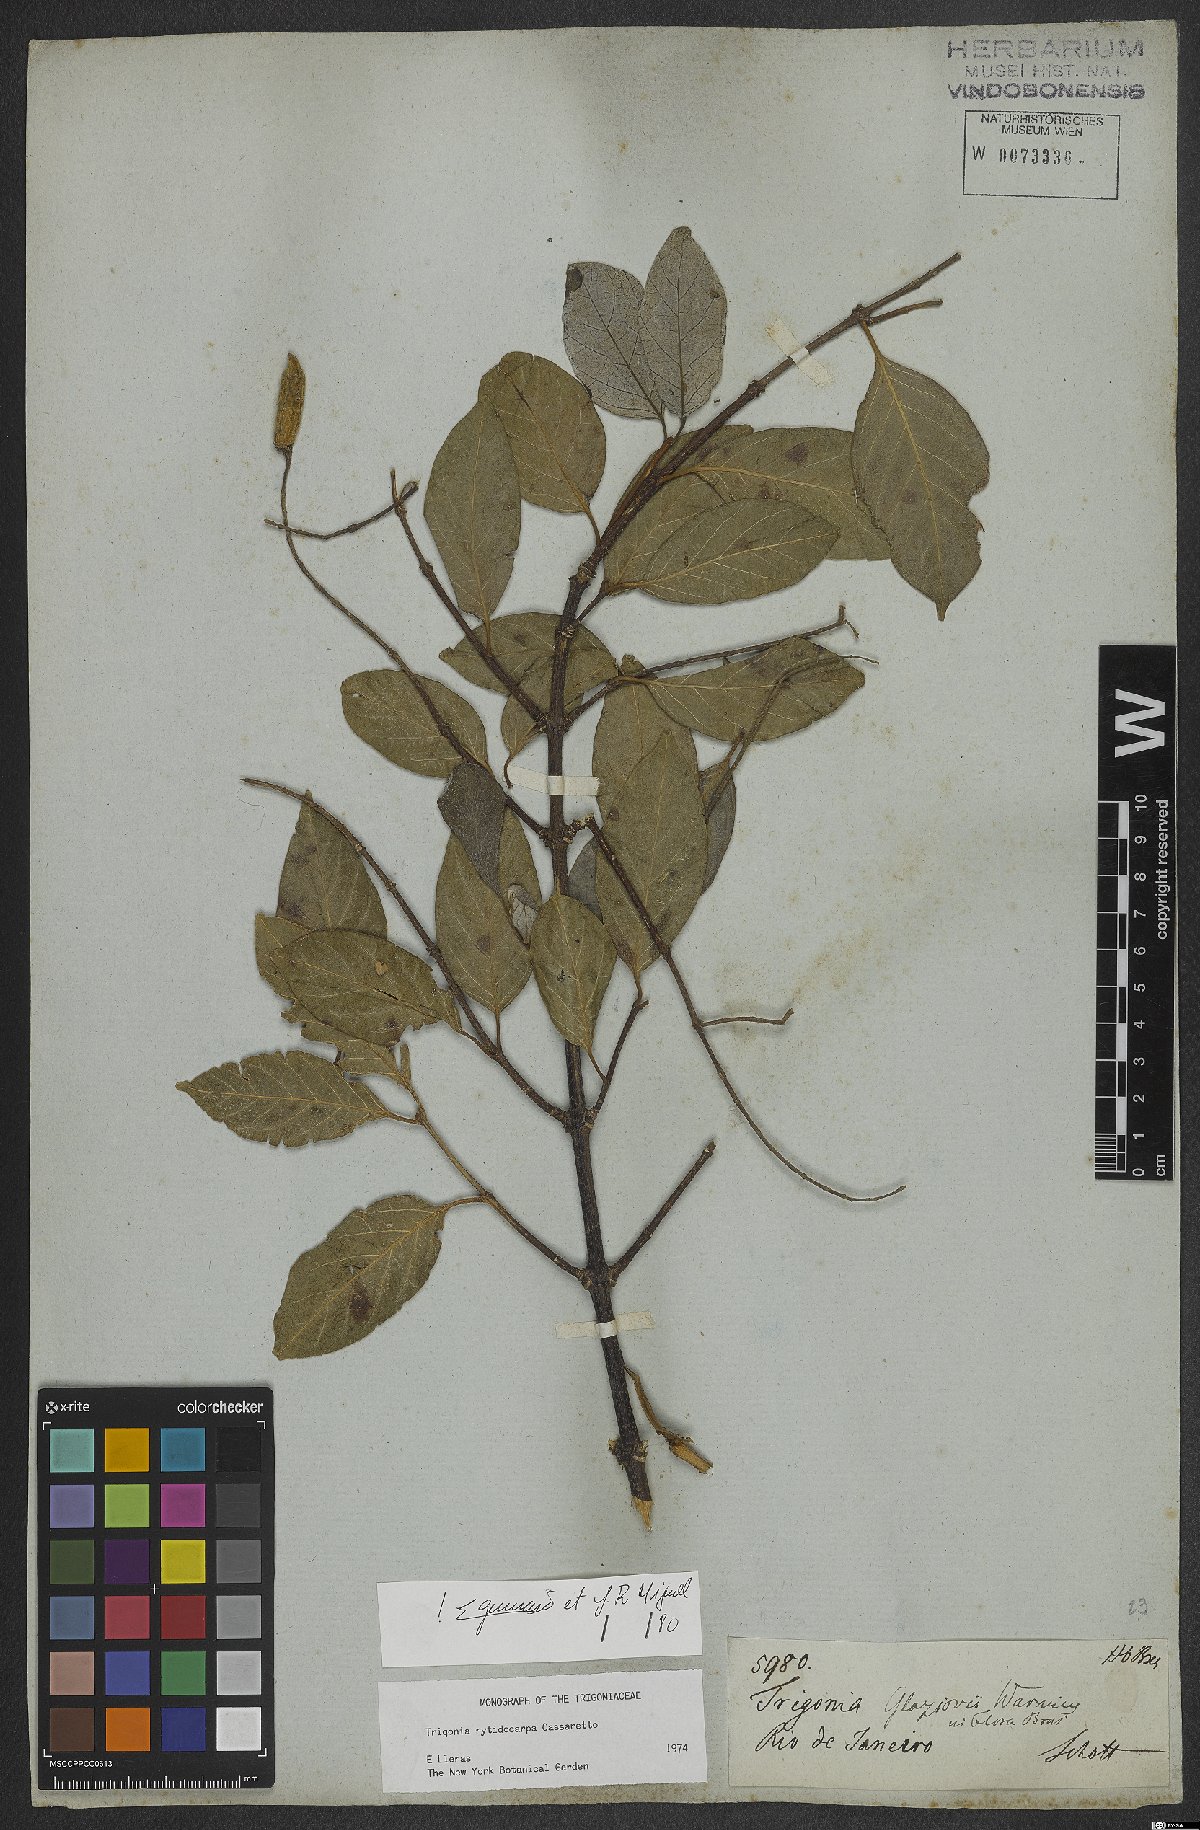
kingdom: Plantae
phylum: Tracheophyta
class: Magnoliopsida
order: Malpighiales
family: Trigoniaceae
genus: Trigonia
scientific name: Trigonia rytidocarpa
